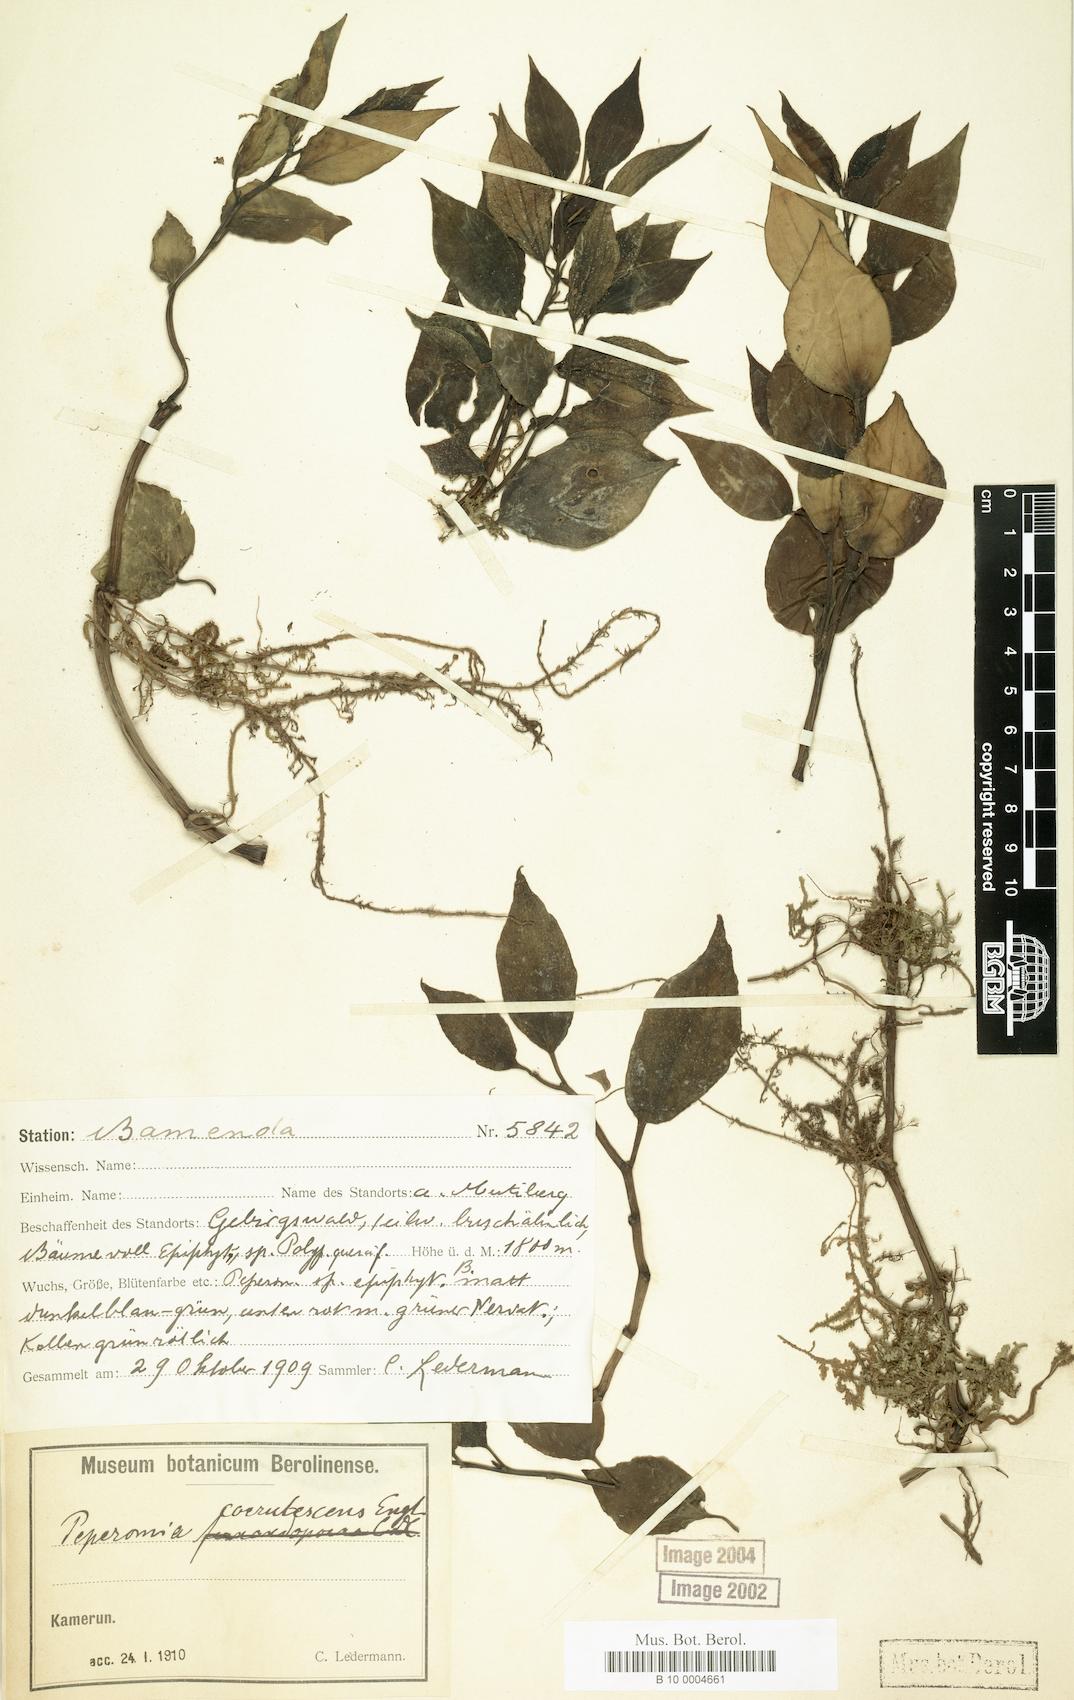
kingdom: Plantae
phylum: Tracheophyta
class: Magnoliopsida
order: Piperales
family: Piperaceae
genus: Peperomia
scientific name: Peperomia
